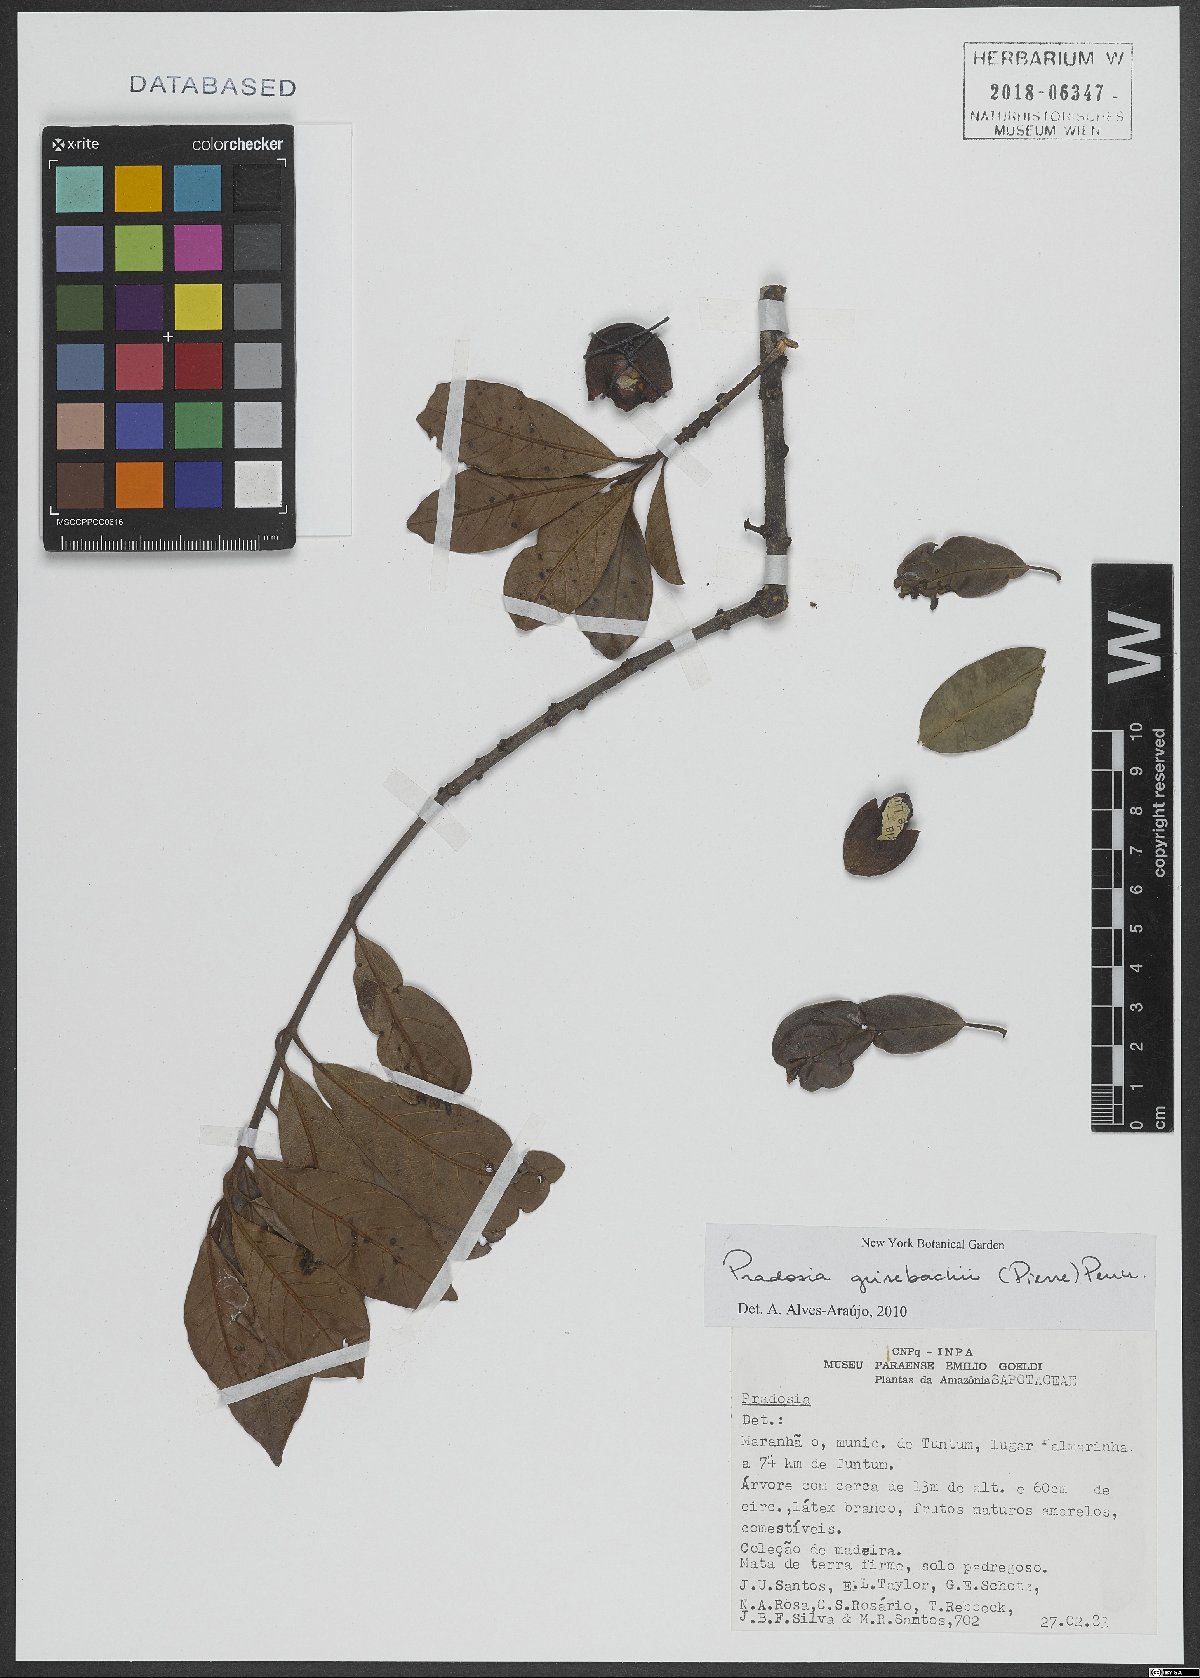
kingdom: Plantae
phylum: Tracheophyta
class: Magnoliopsida
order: Ericales
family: Sapotaceae
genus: Pradosia
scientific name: Pradosia grisebachii
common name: Grisebach pradosia
